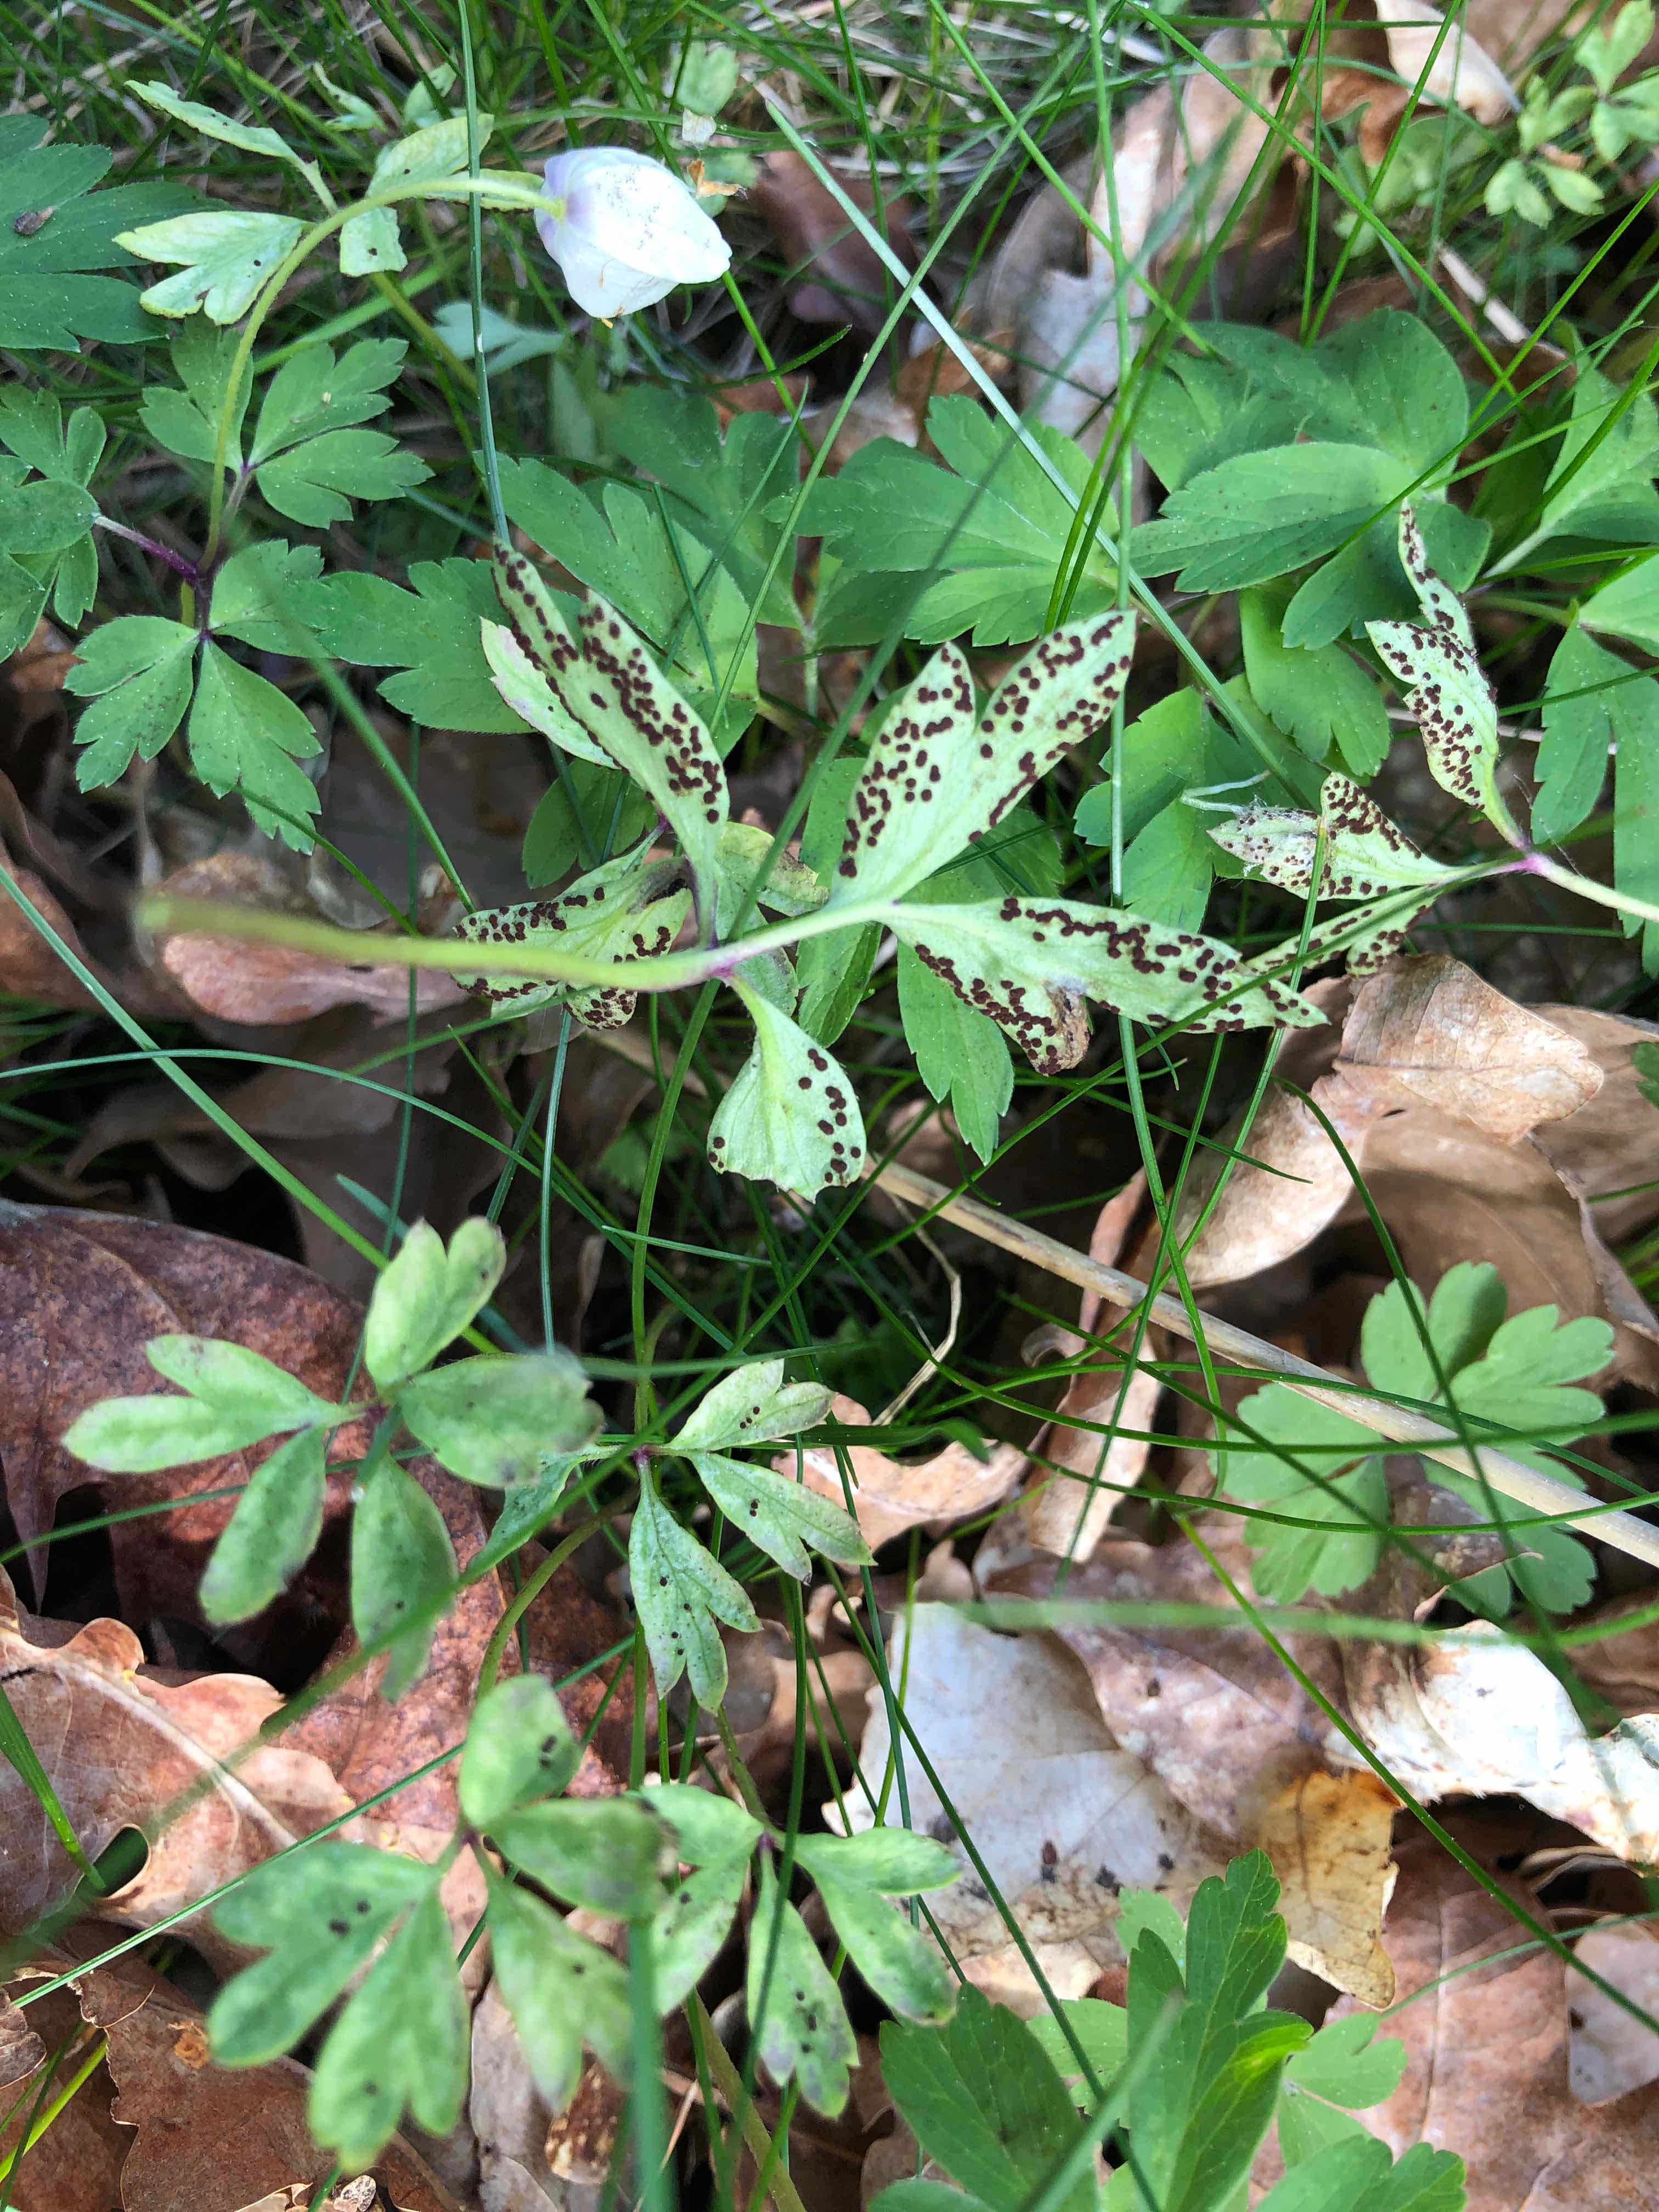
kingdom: Fungi
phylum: Basidiomycota
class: Pucciniomycetes
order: Pucciniales
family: Tranzscheliaceae
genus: Tranzschelia
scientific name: Tranzschelia anemones
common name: anemone-knæksporerust
